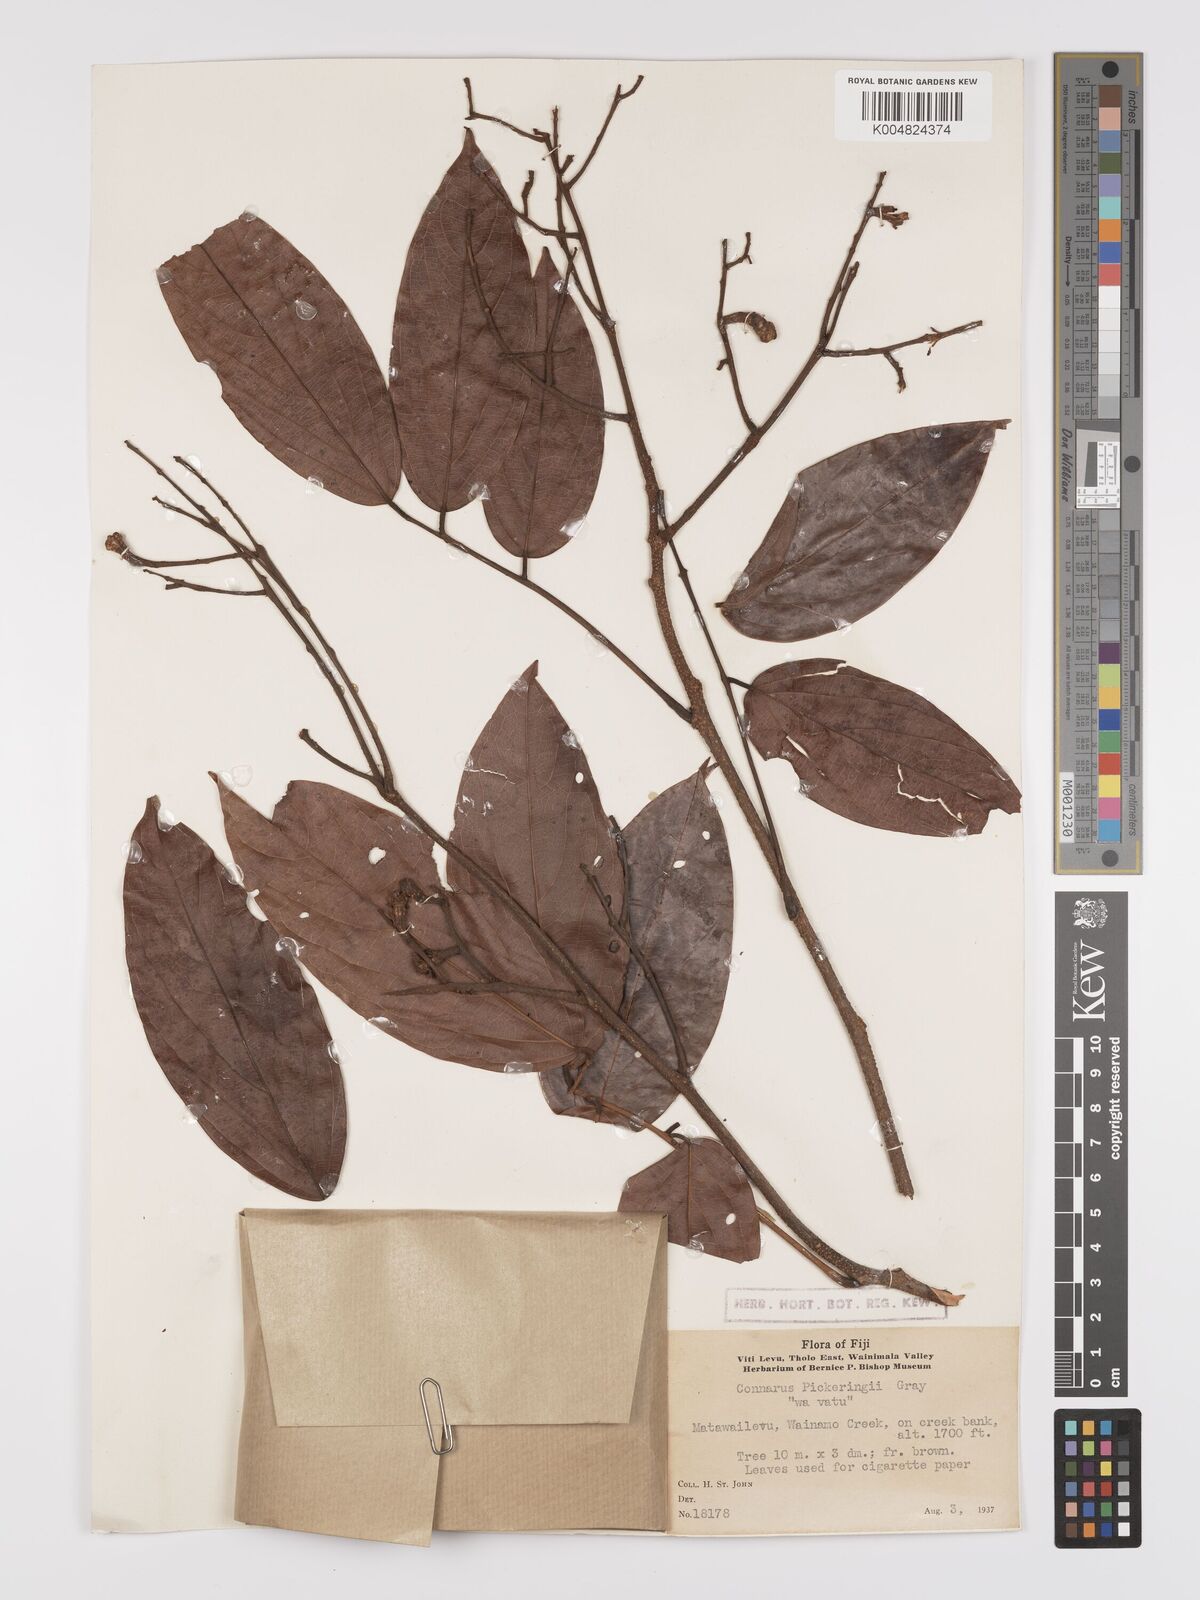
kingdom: Plantae
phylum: Tracheophyta
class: Magnoliopsida
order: Oxalidales
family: Connaraceae
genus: Connarus
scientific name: Connarus pickeringii
